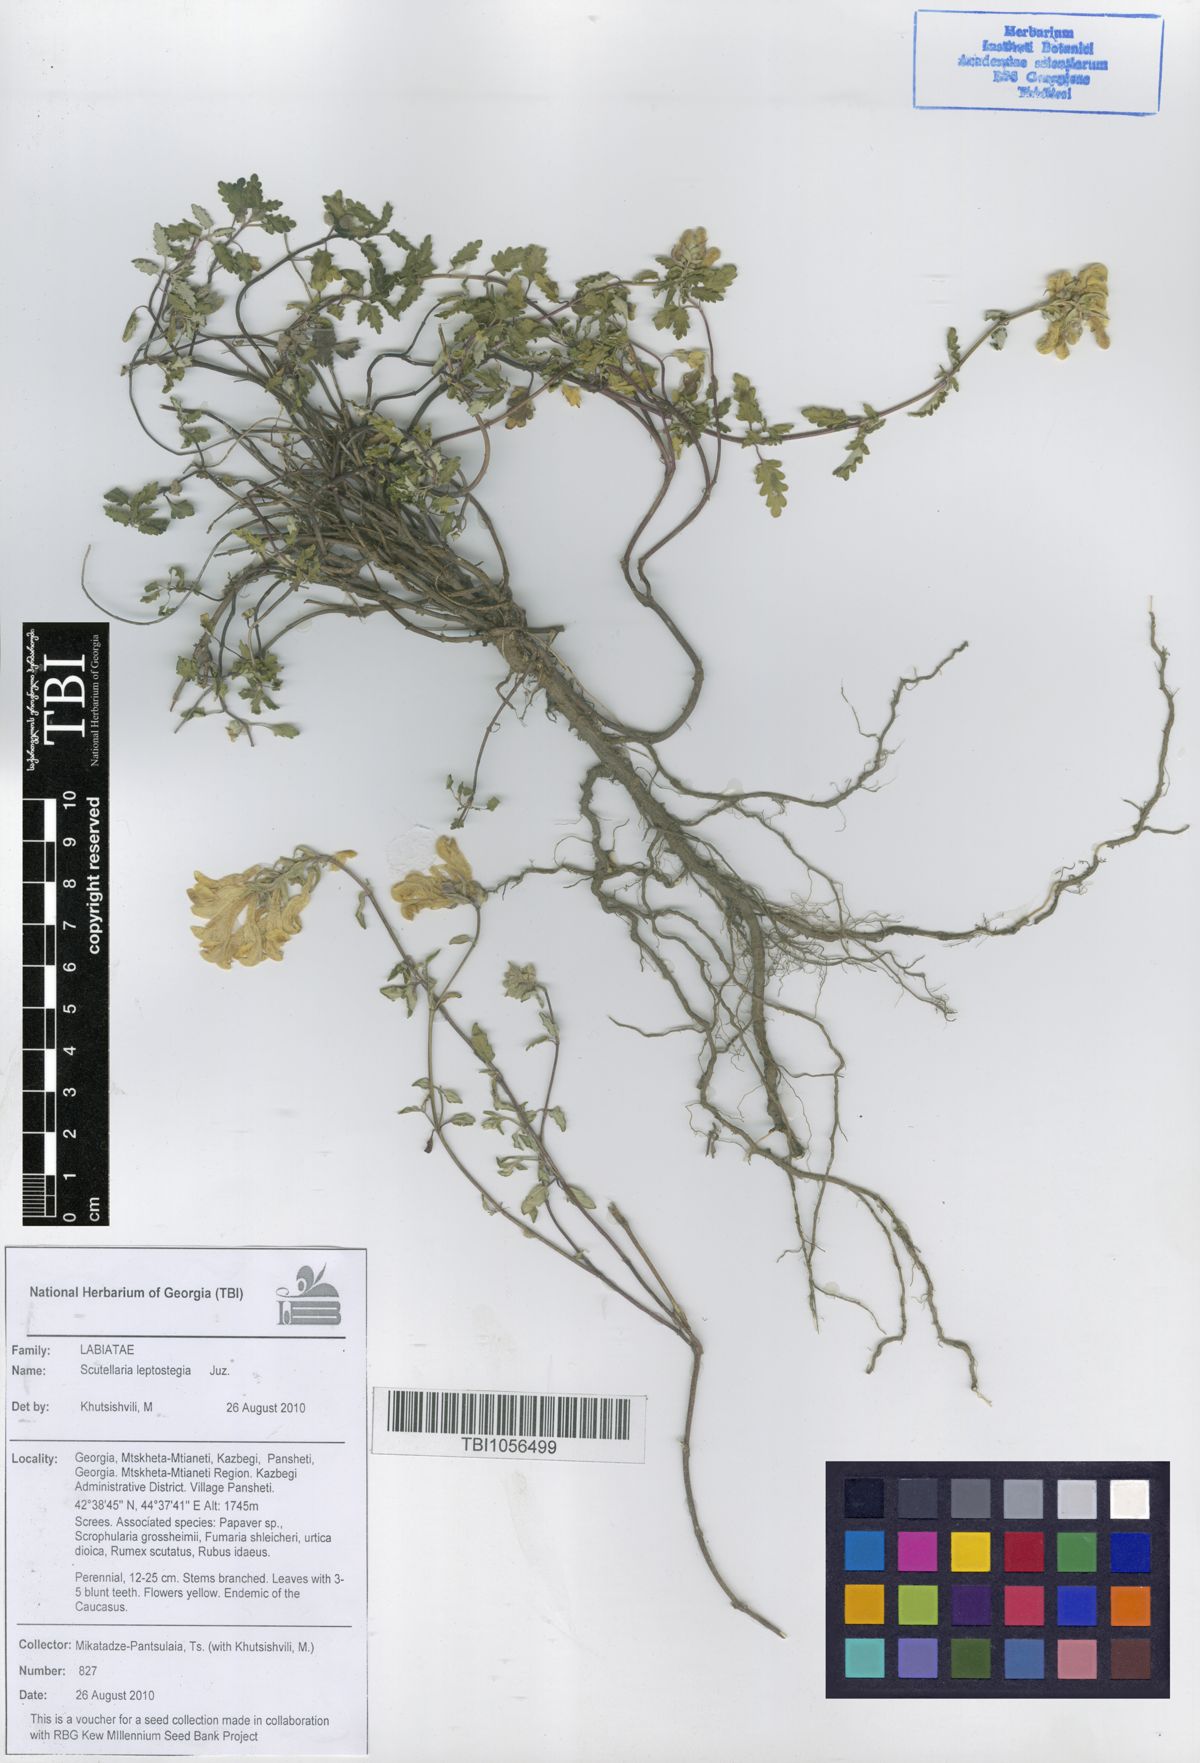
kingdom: Plantae
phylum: Tracheophyta
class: Magnoliopsida
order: Lamiales
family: Lamiaceae
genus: Scutellaria
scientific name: Scutellaria leptostegia
